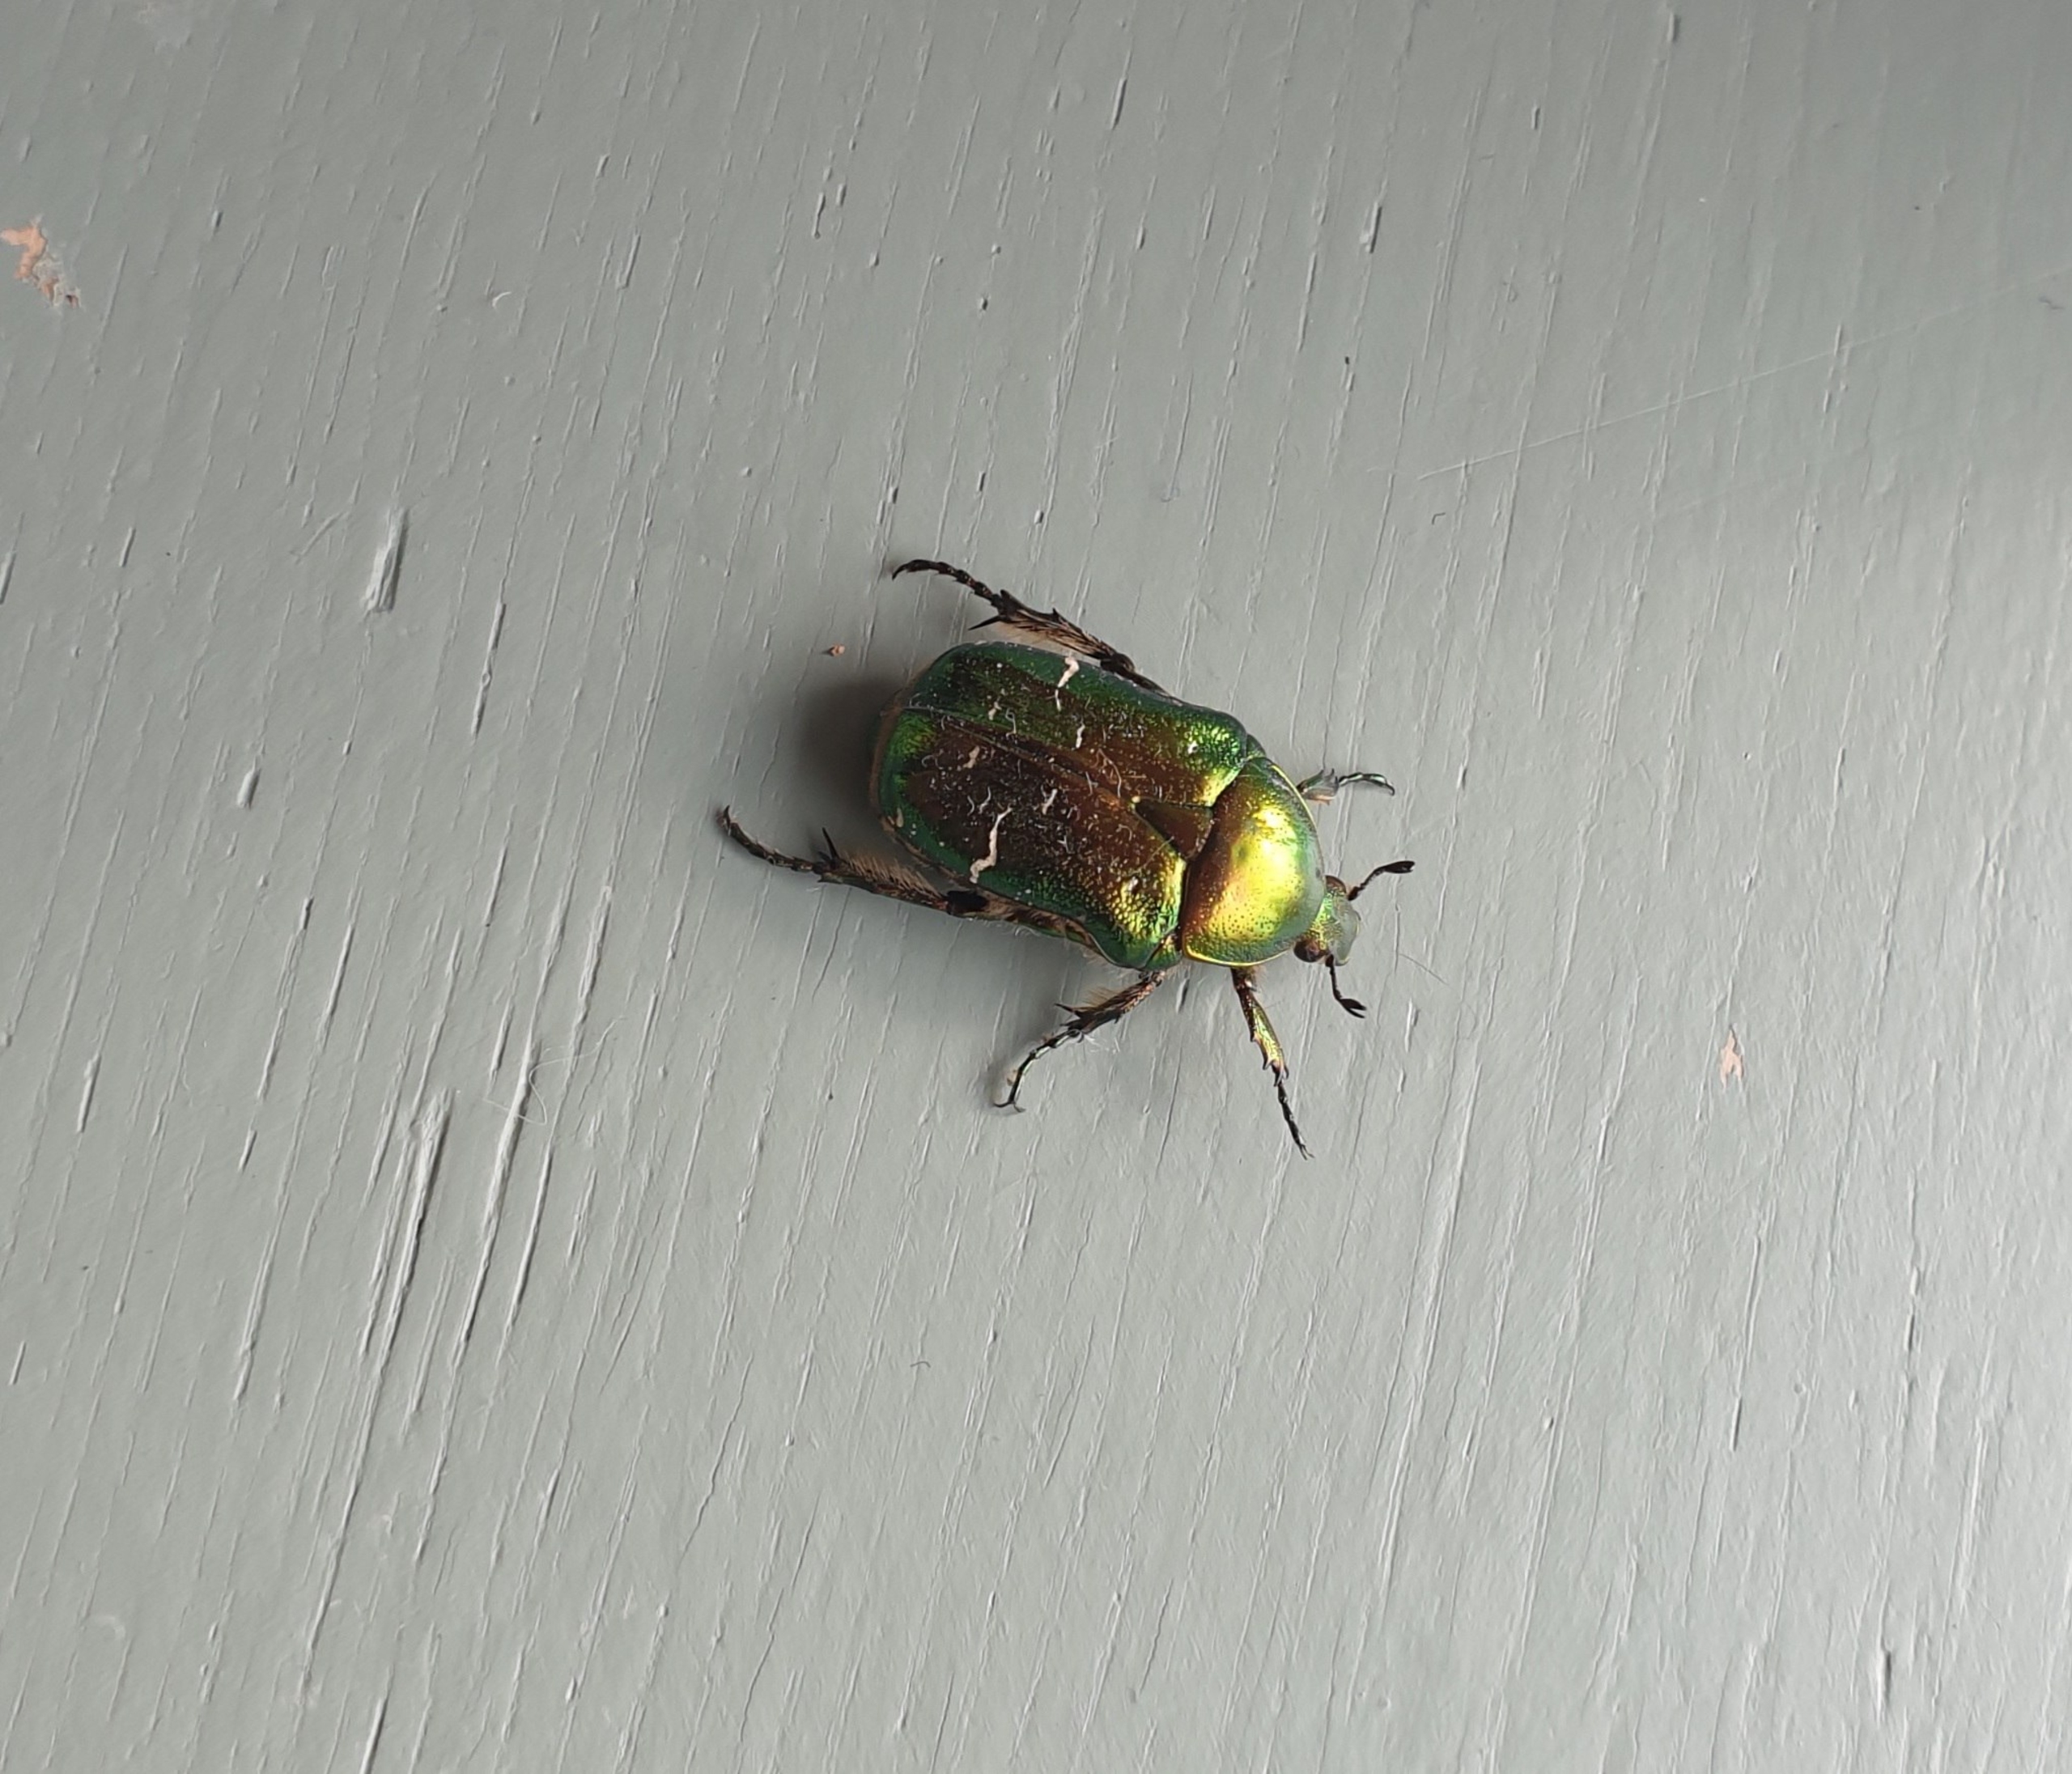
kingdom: Animalia
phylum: Arthropoda
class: Insecta
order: Coleoptera
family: Scarabaeidae
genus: Cetonia
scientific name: Cetonia aurata
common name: Grøn guldbasse
